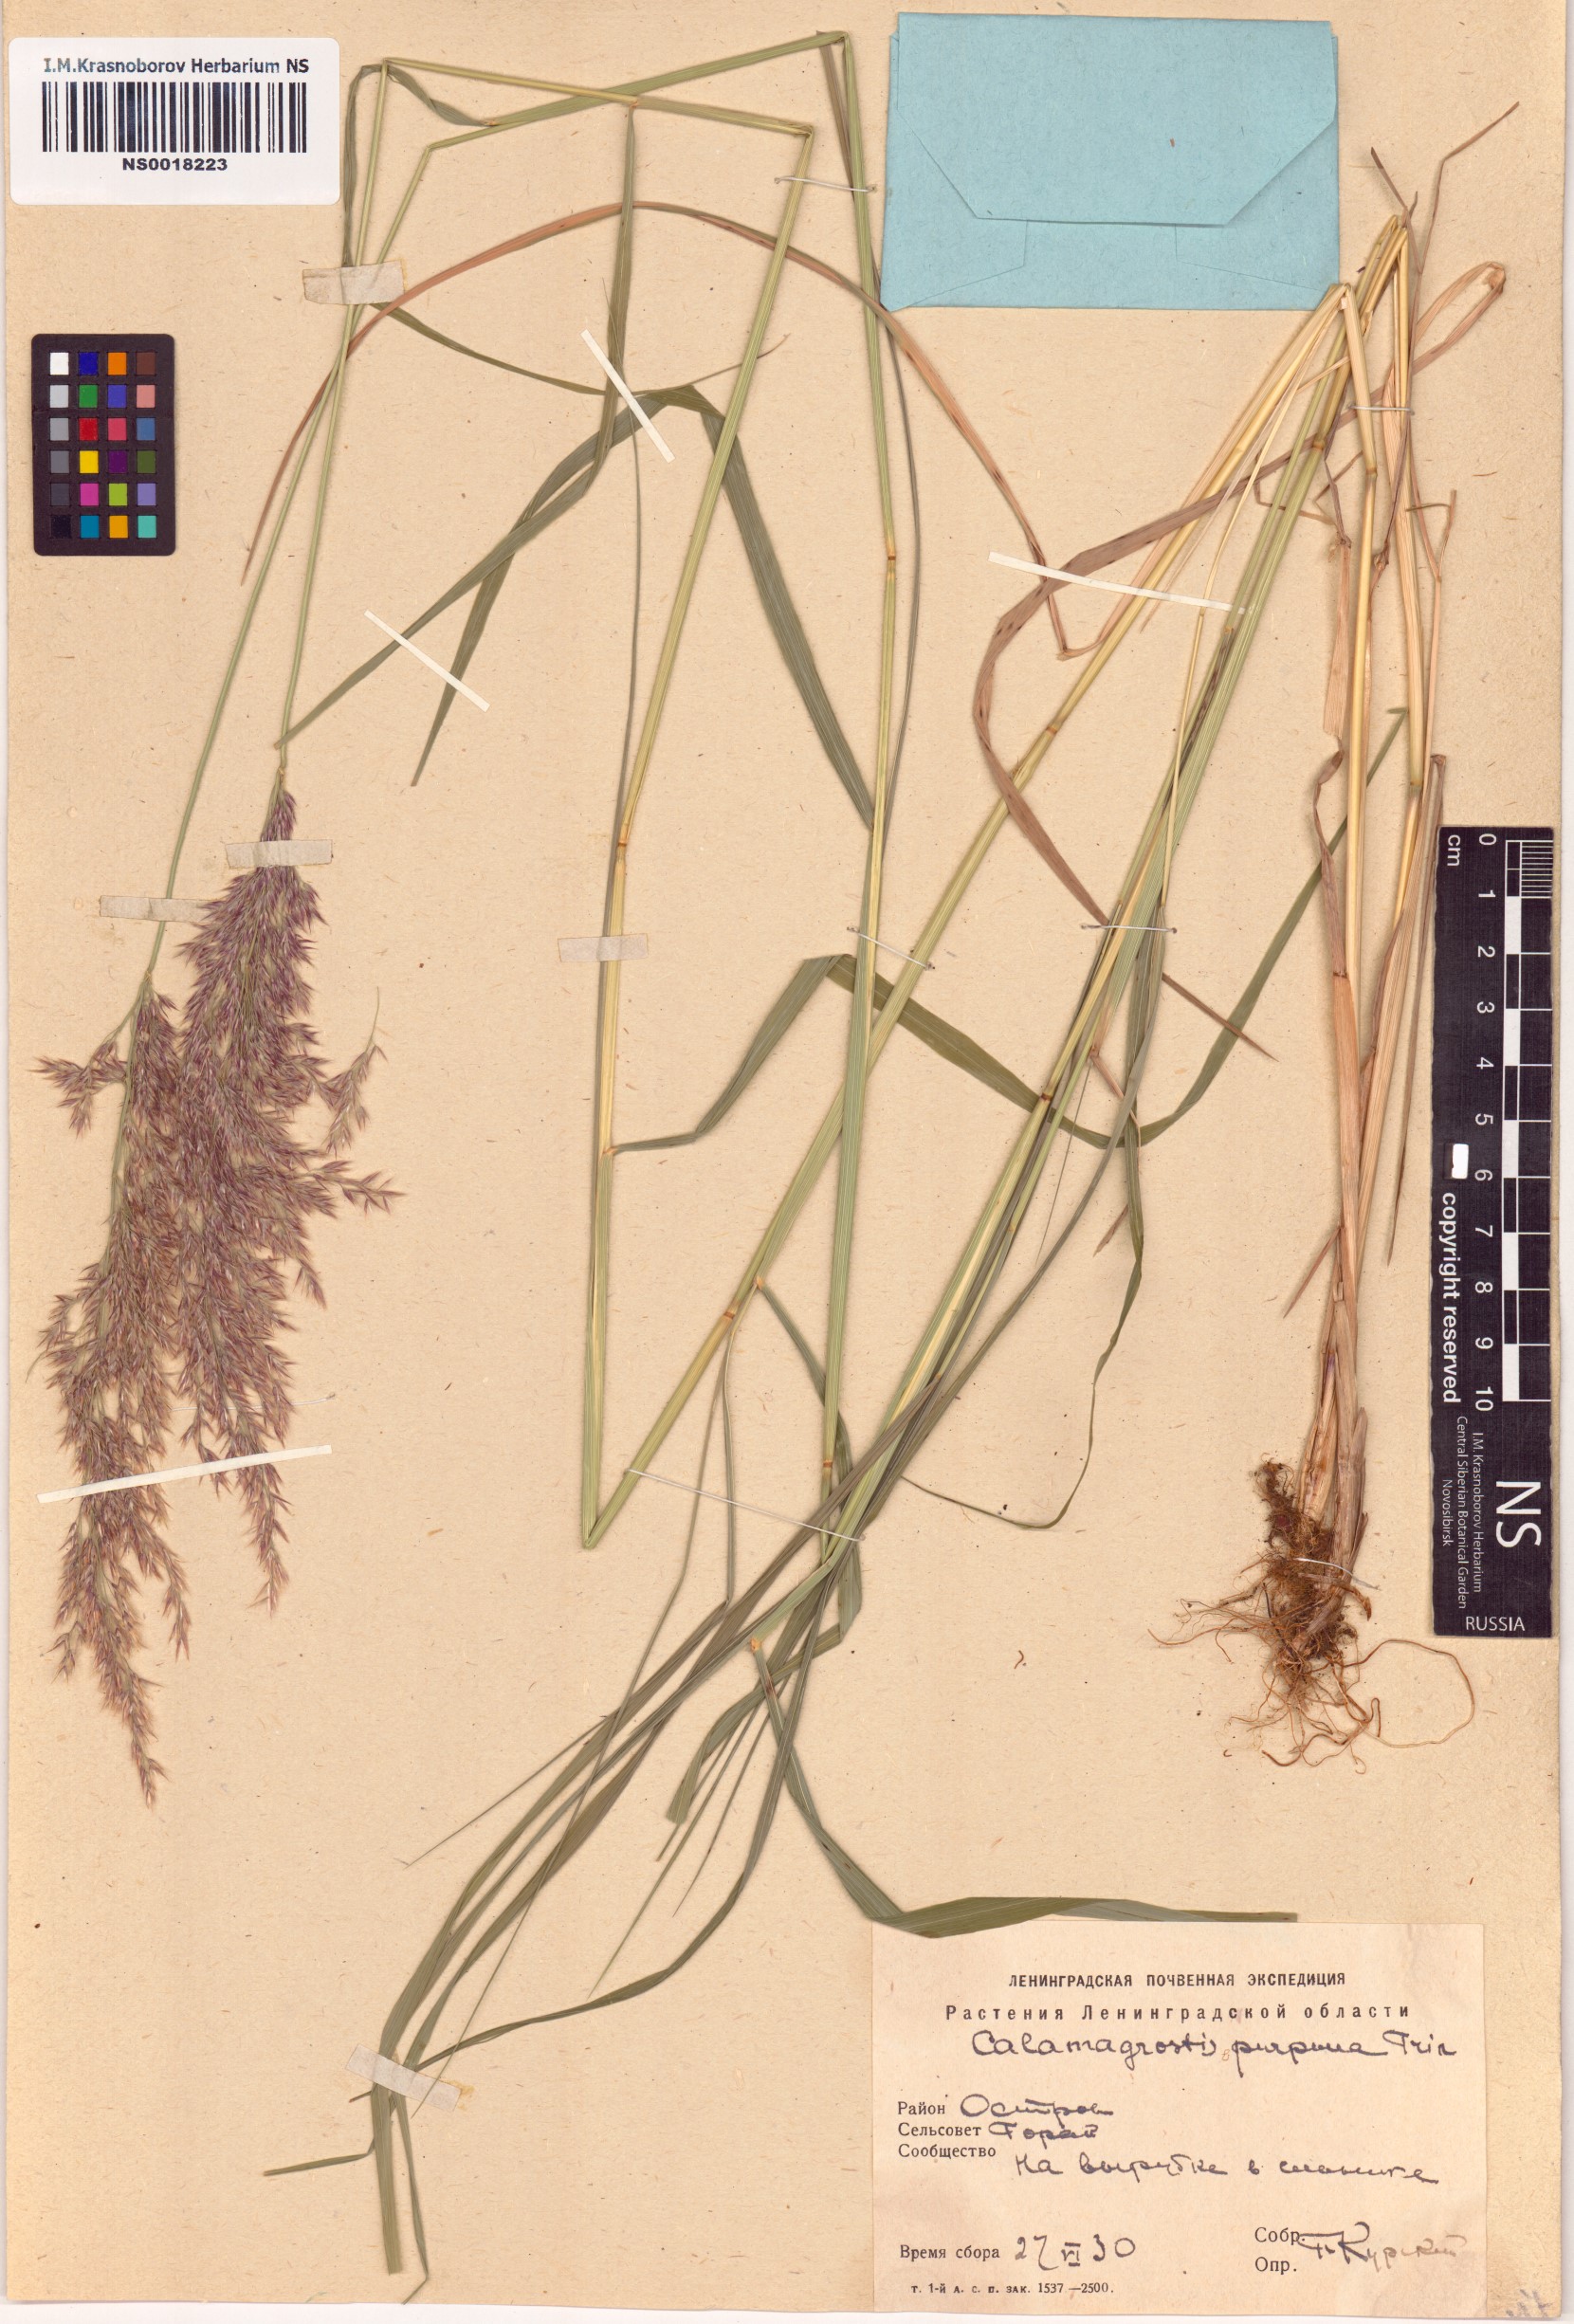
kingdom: Plantae
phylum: Tracheophyta
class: Liliopsida
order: Poales
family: Poaceae
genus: Calamagrostis
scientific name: Calamagrostis purpurea
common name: Scandinavian small-reed
